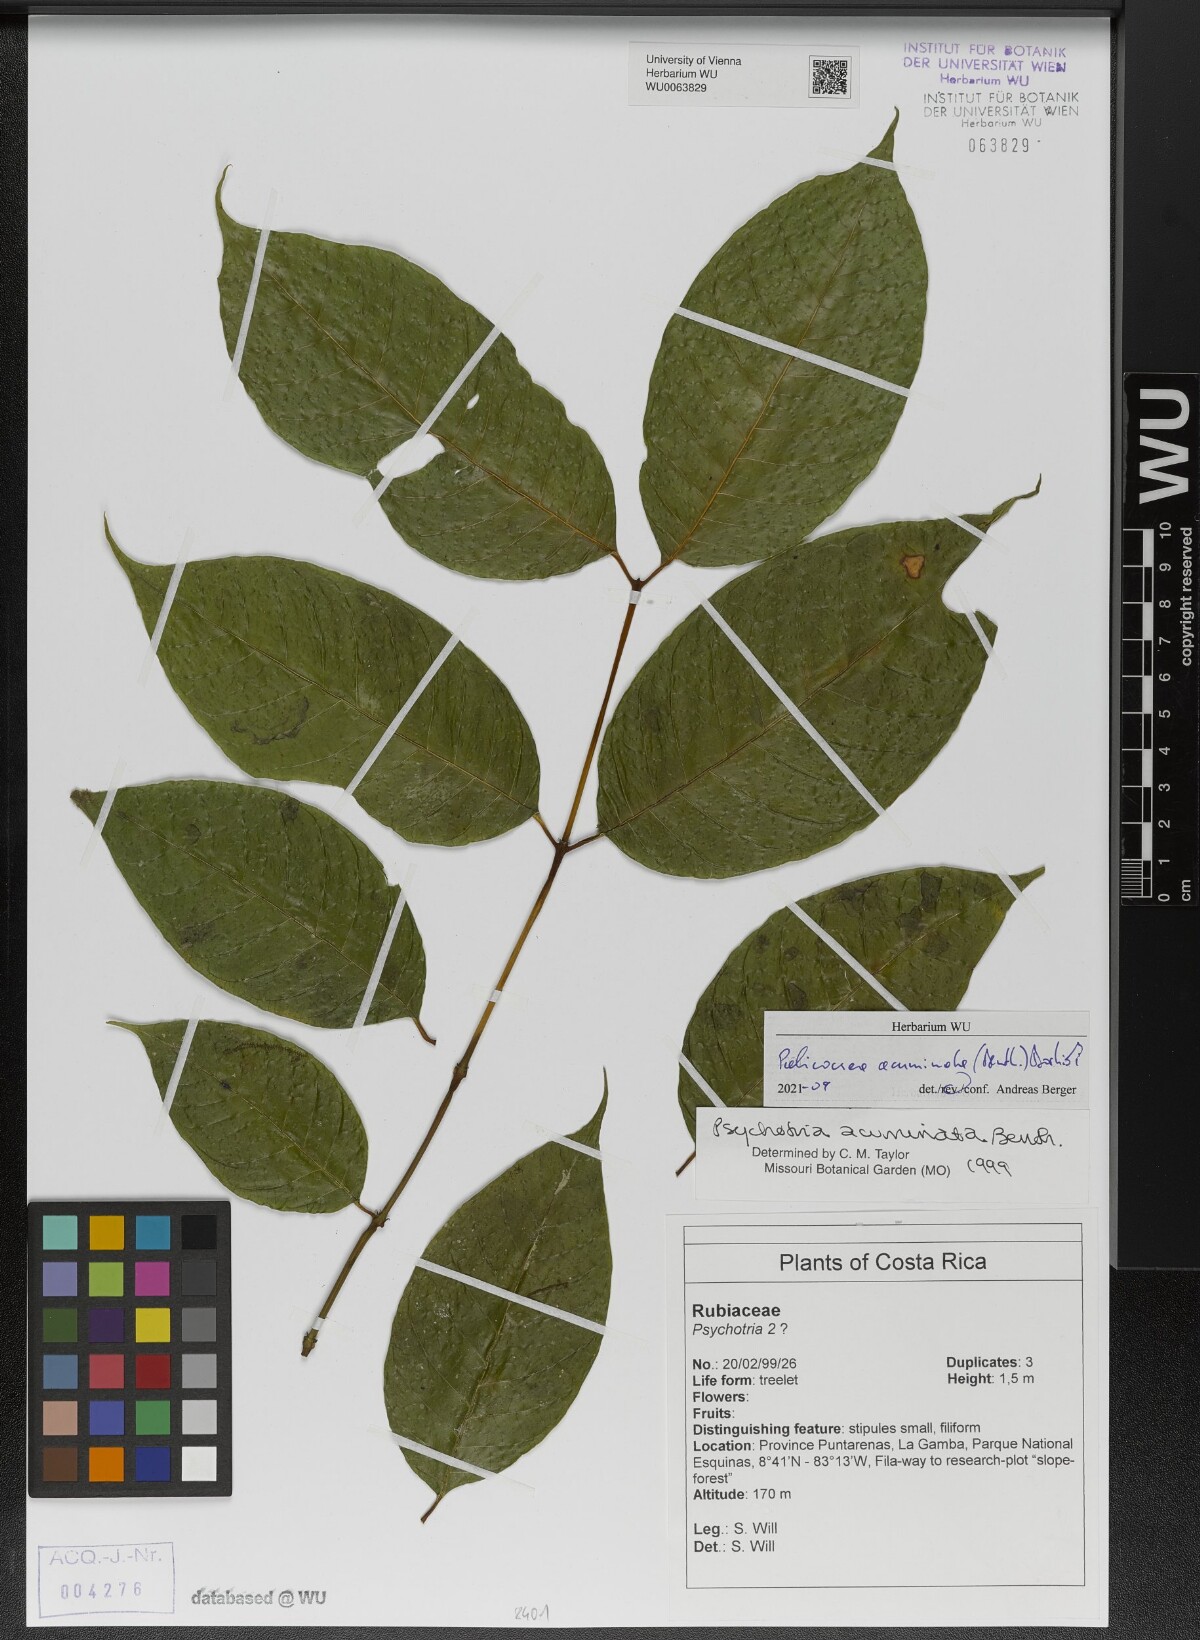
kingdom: Plantae
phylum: Tracheophyta
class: Magnoliopsida
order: Gentianales
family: Rubiaceae
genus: Palicourea
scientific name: Palicourea acuminata
